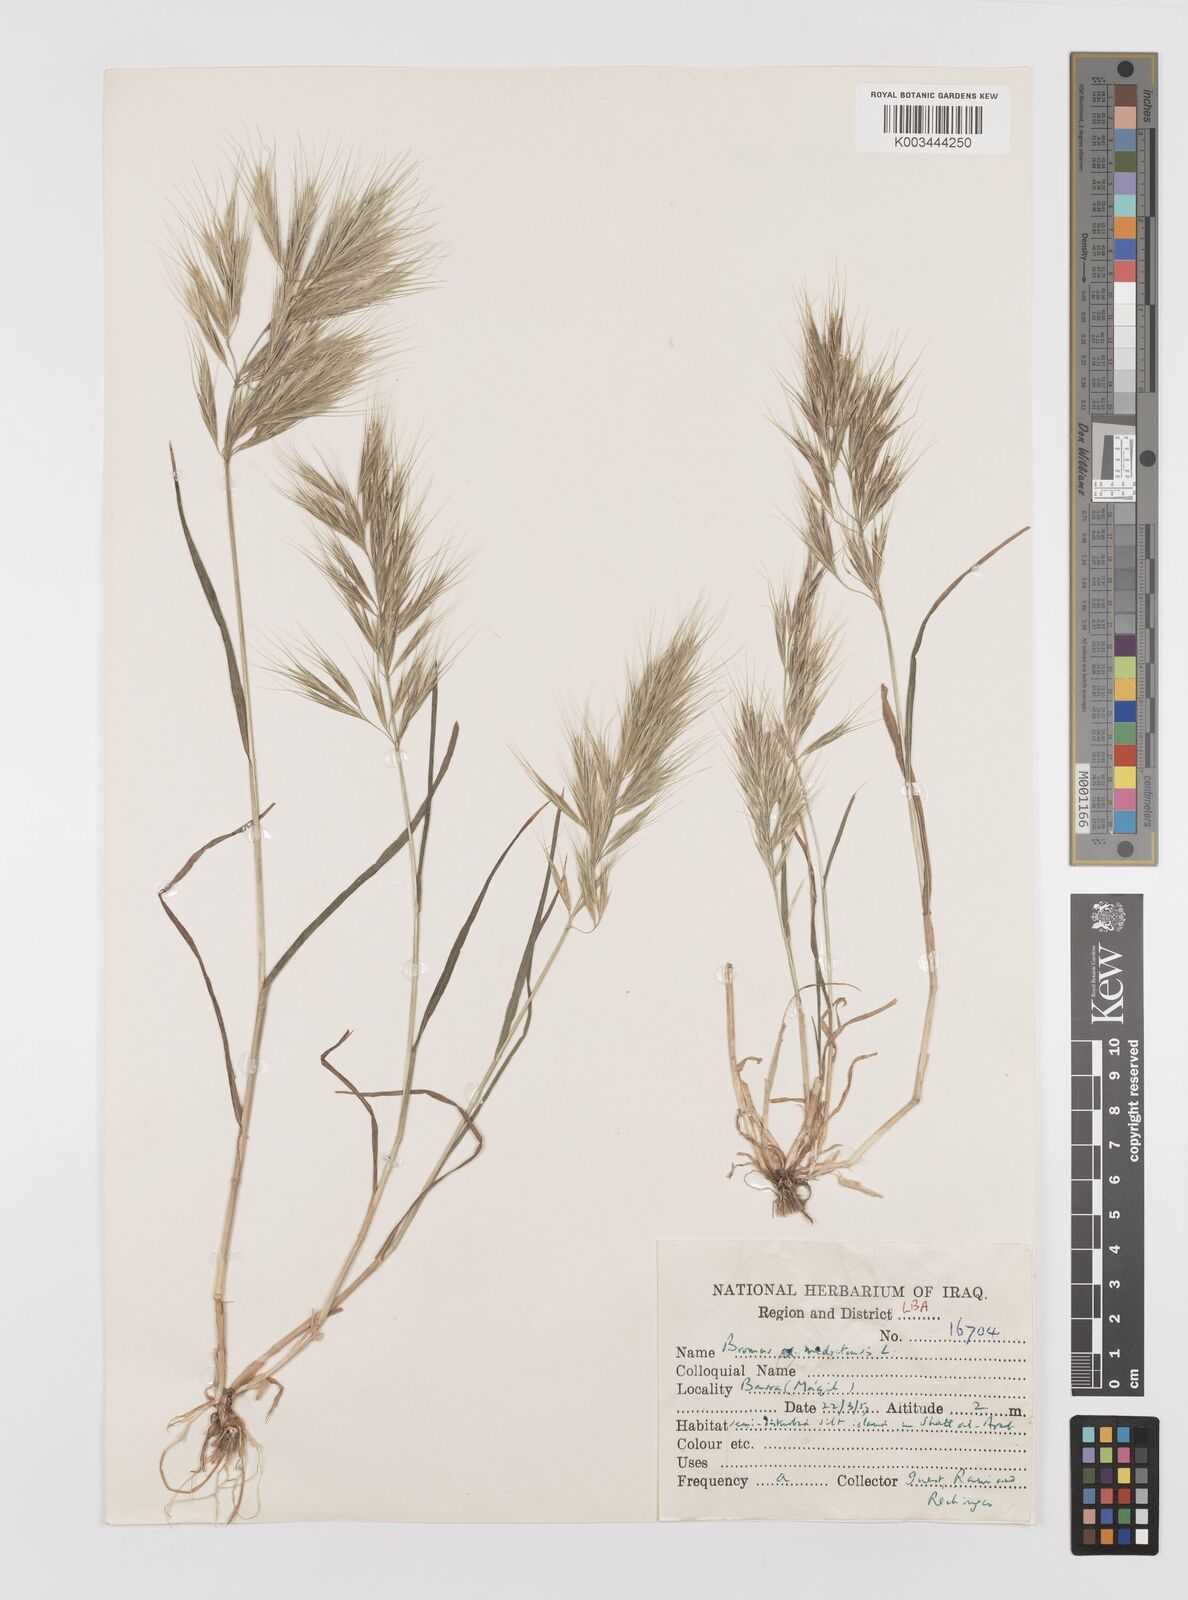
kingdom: Plantae
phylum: Tracheophyta
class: Liliopsida
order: Poales
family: Poaceae
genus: Bromus
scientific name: Bromus madritensis
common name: Compact brome
